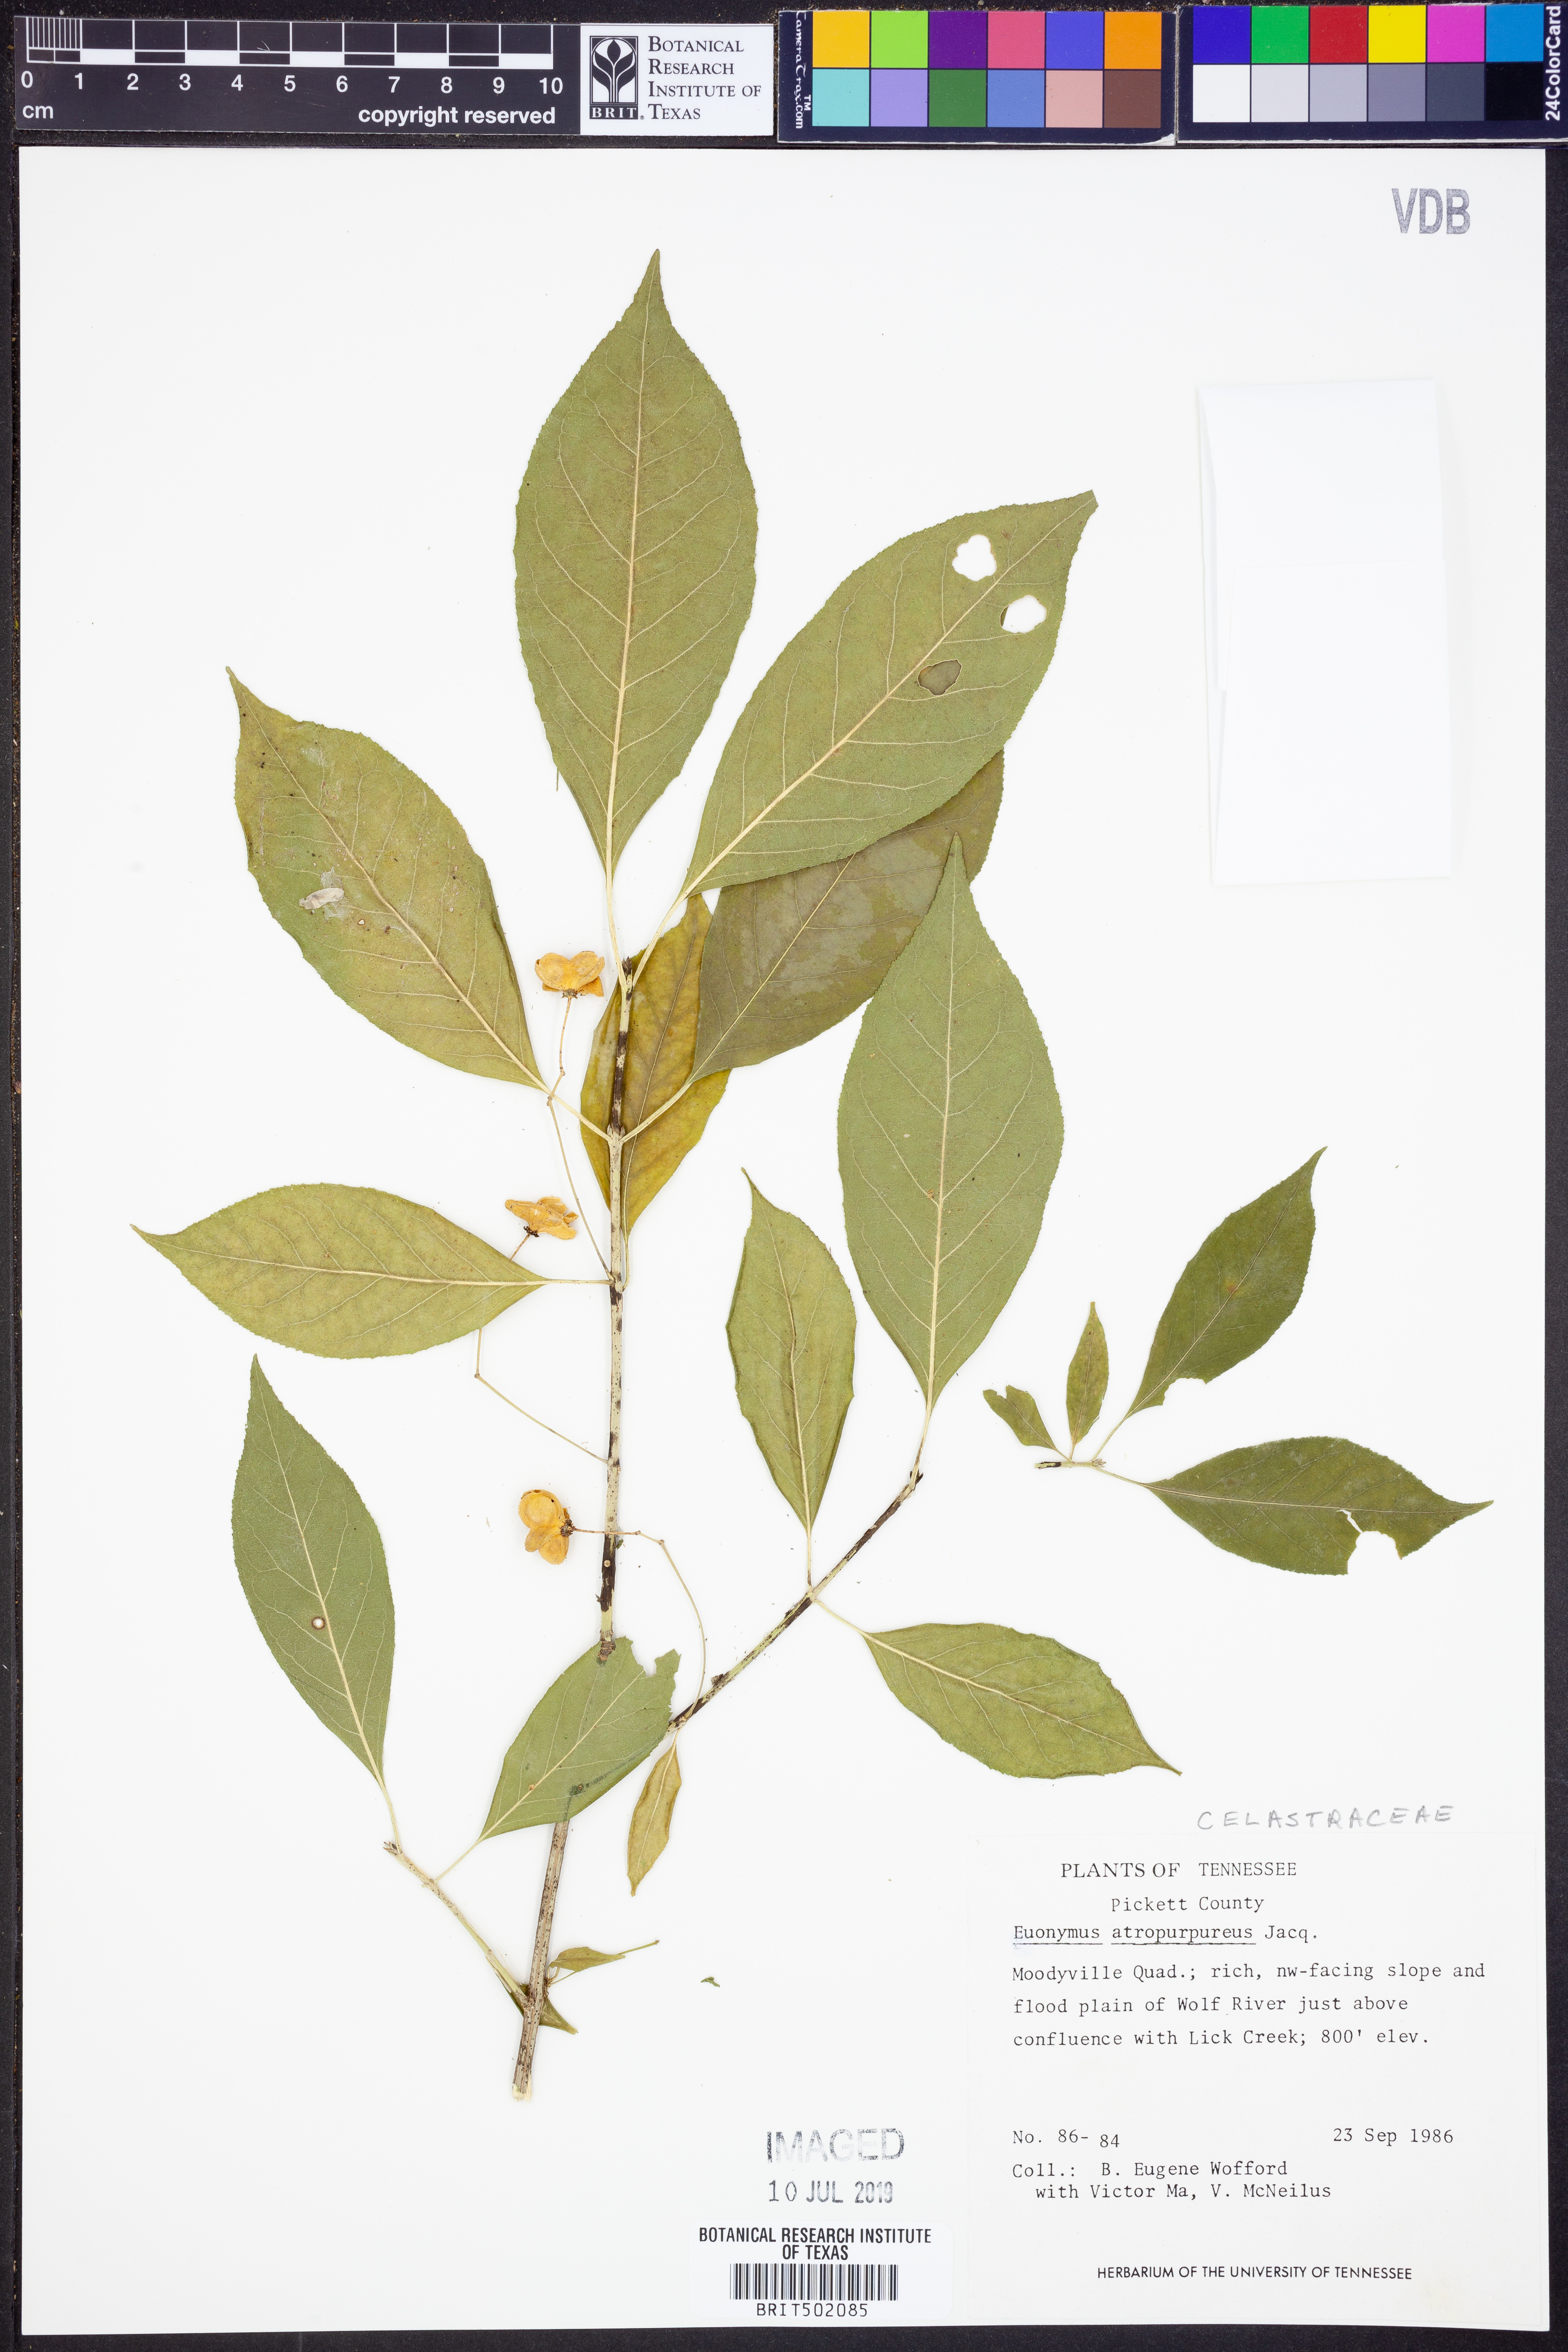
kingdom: Plantae
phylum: Tracheophyta
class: Magnoliopsida
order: Celastrales
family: Celastraceae
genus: Euonymus
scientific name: Euonymus atropurpureus
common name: Eastern wahoo
